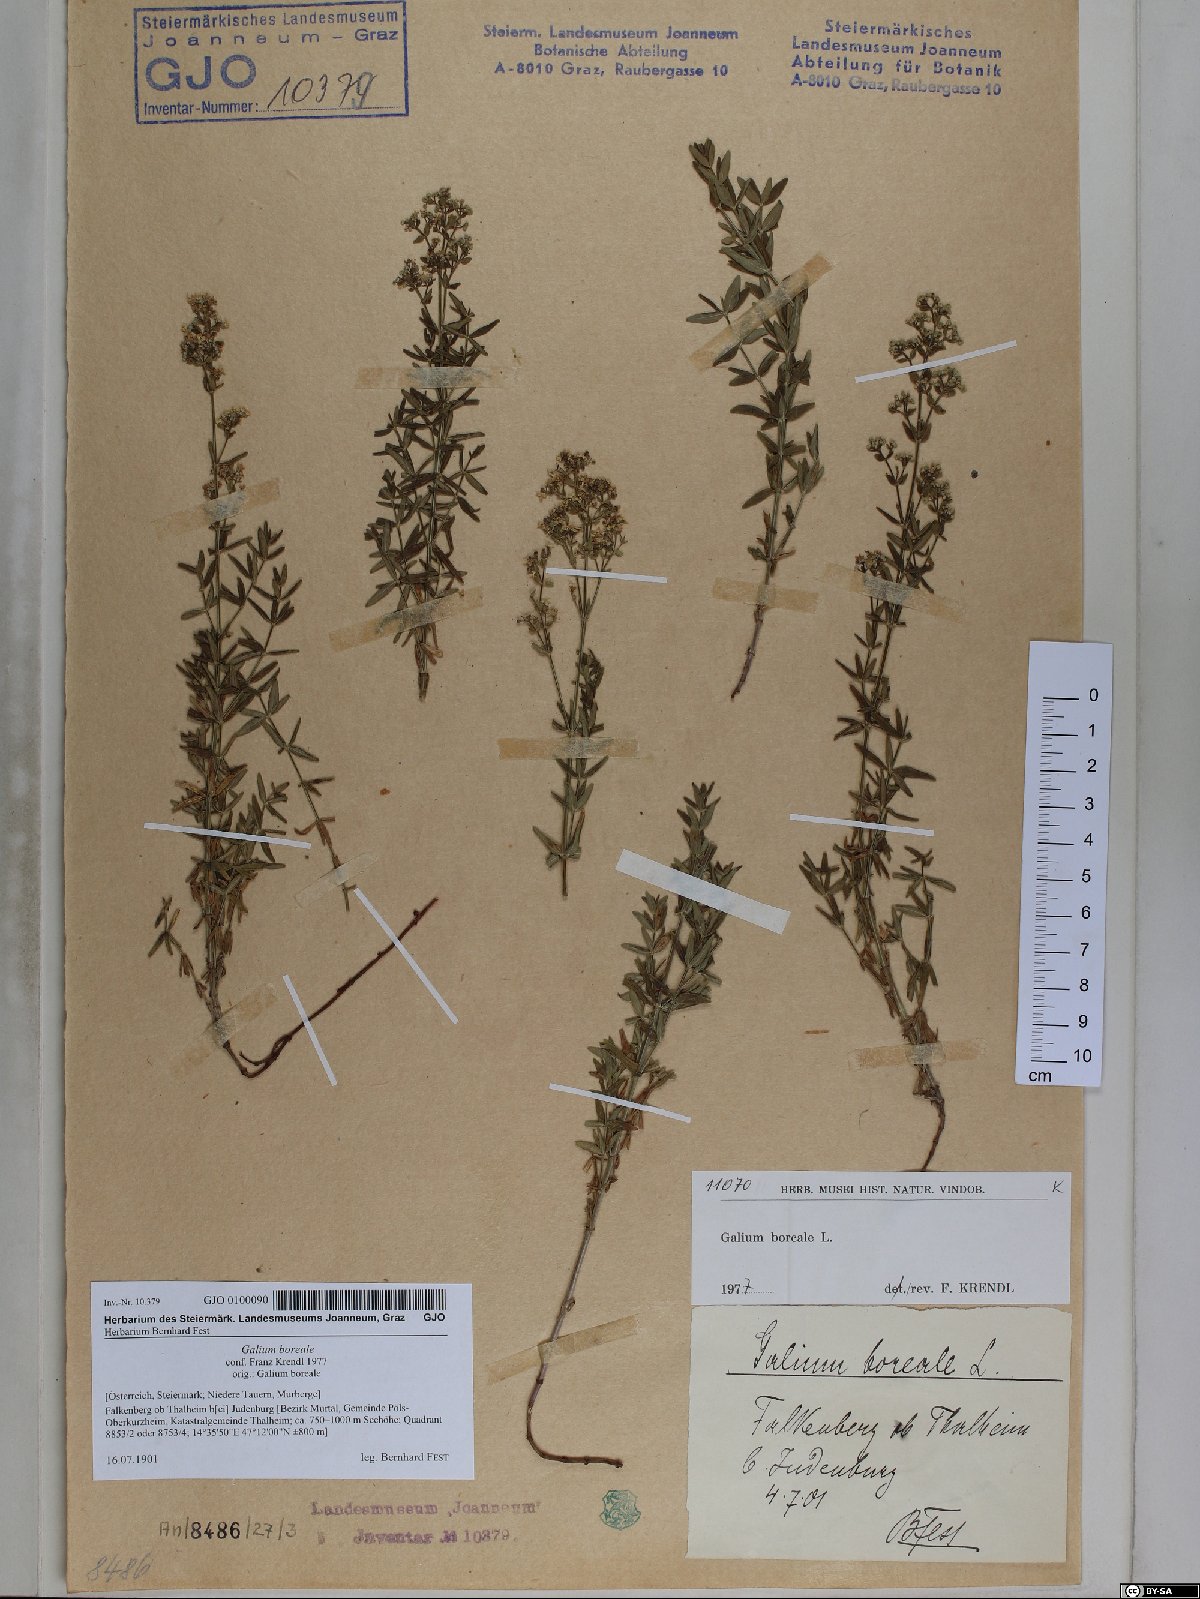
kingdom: Plantae
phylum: Tracheophyta
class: Magnoliopsida
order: Gentianales
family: Rubiaceae
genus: Galium
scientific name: Galium boreale
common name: Northern bedstraw
